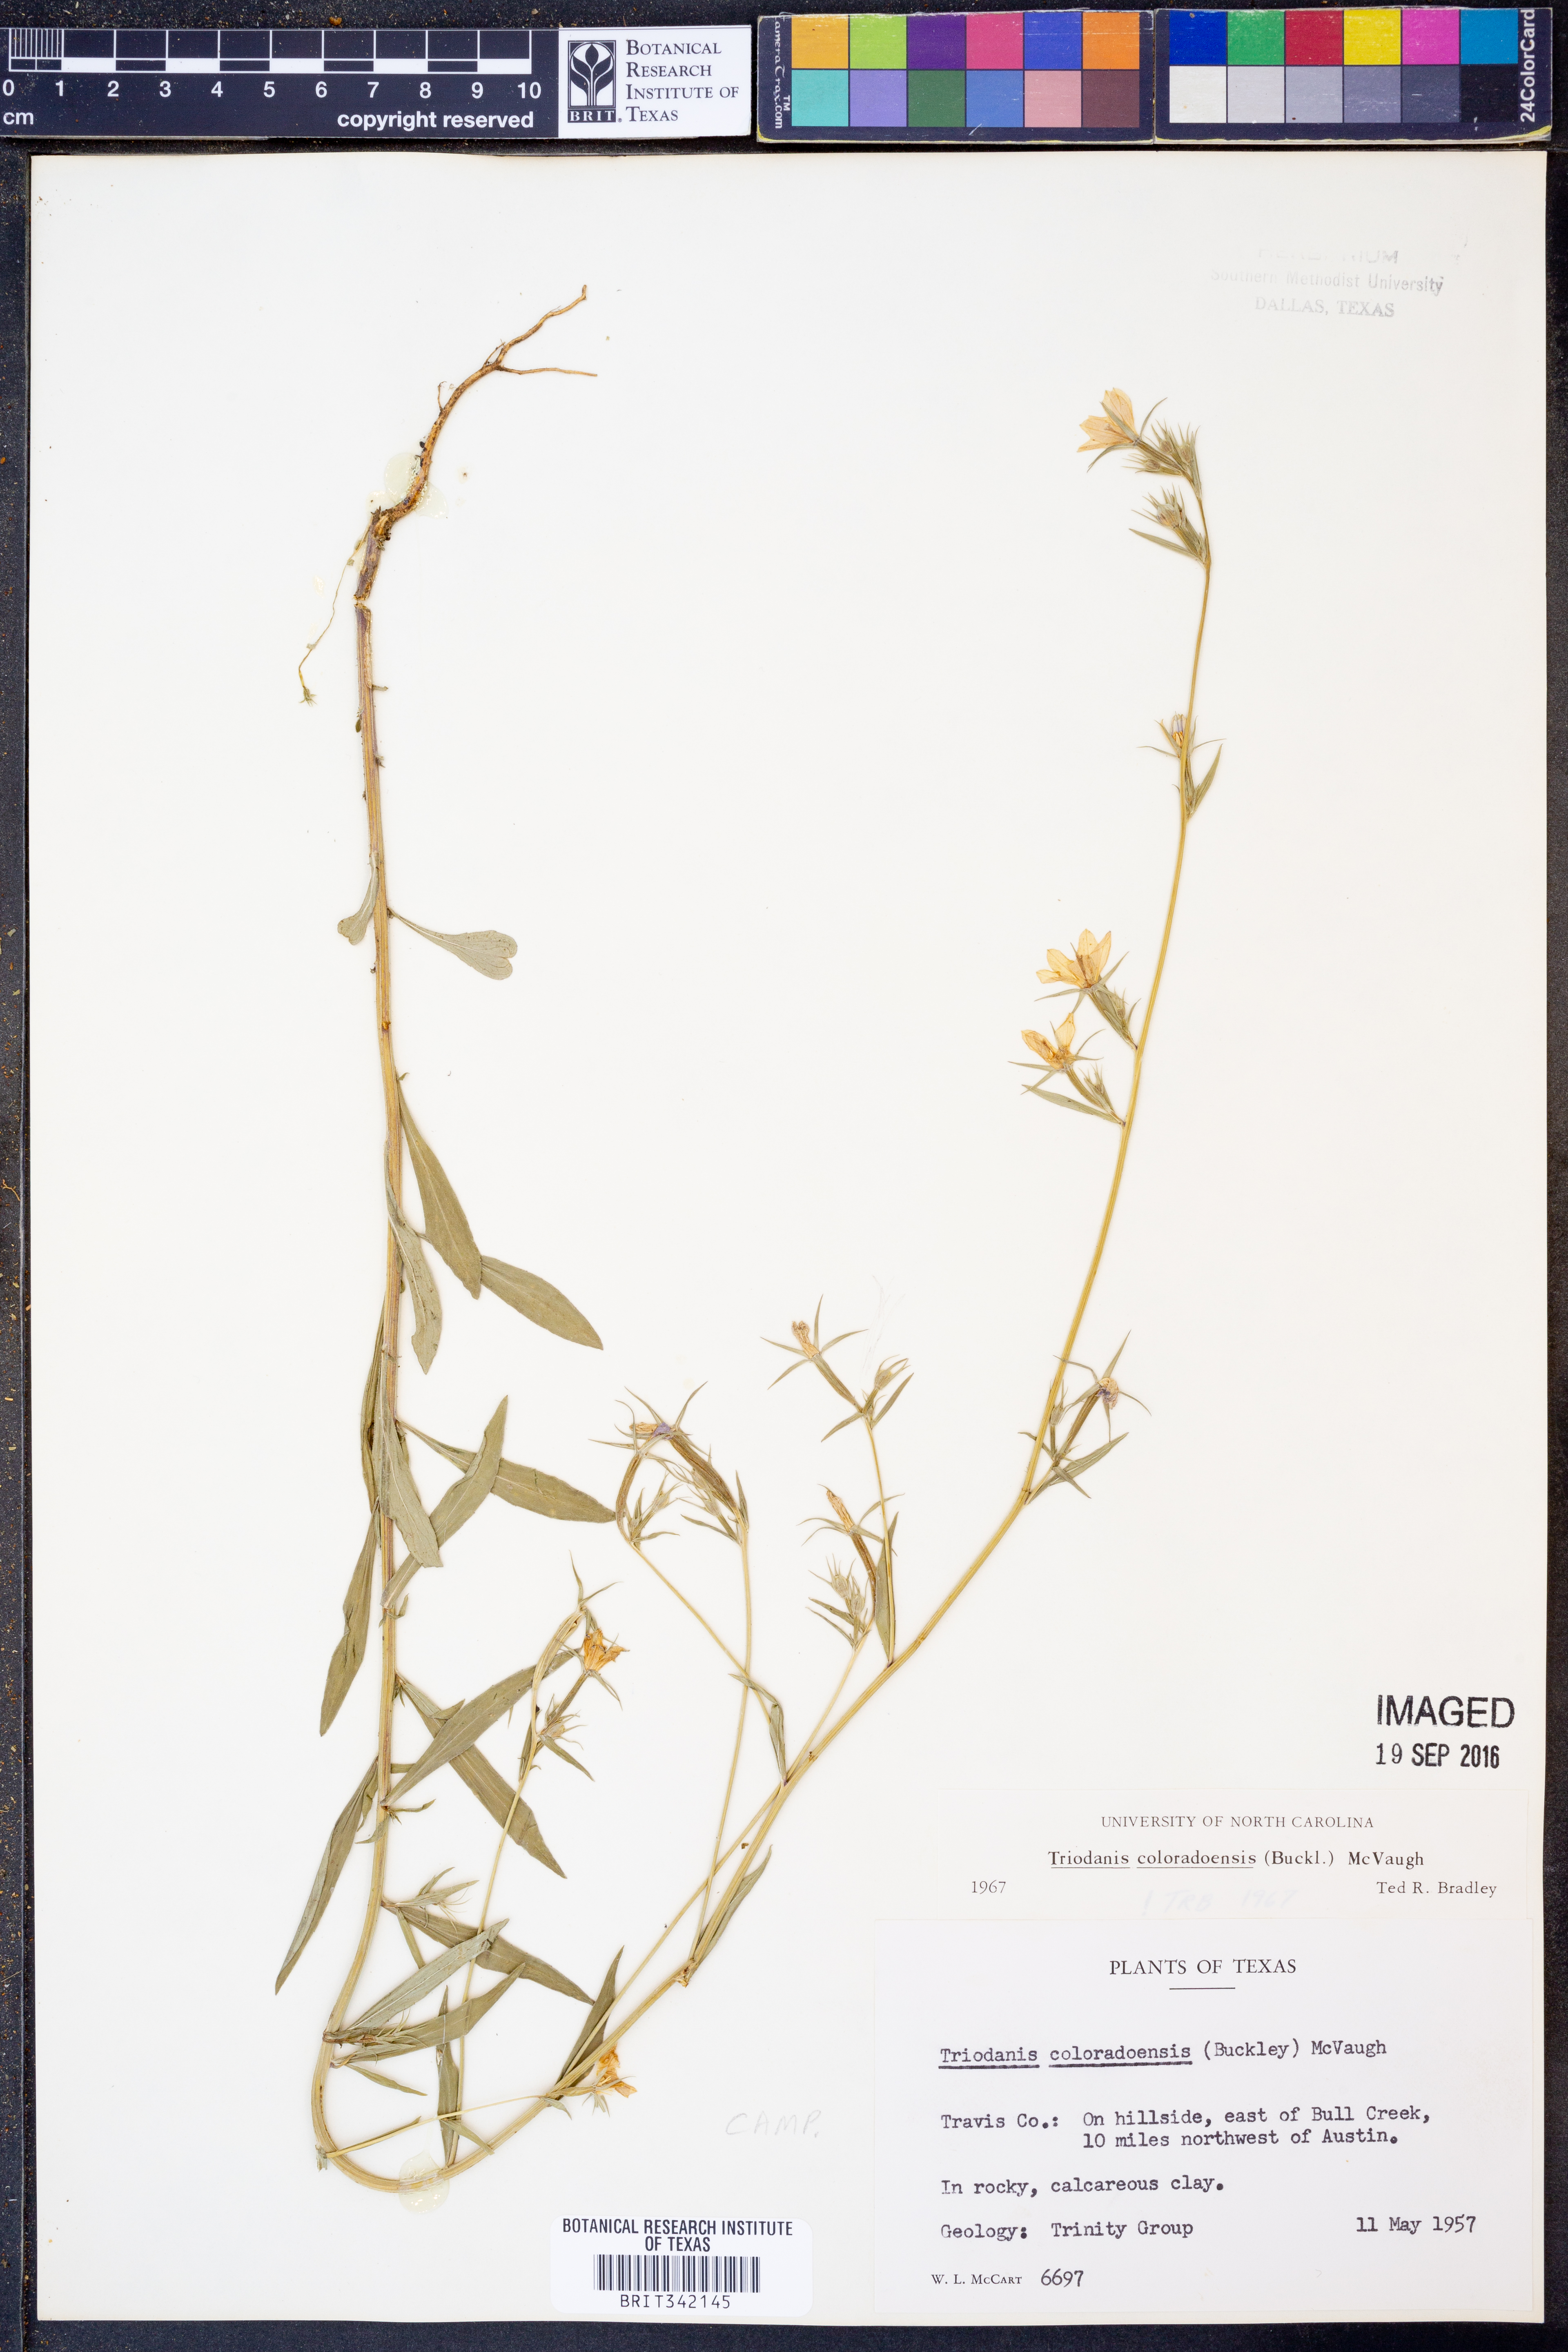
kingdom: Plantae
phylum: Tracheophyta
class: Magnoliopsida
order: Asterales
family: Campanulaceae
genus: Triodanis
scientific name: Triodanis coloradoensis
